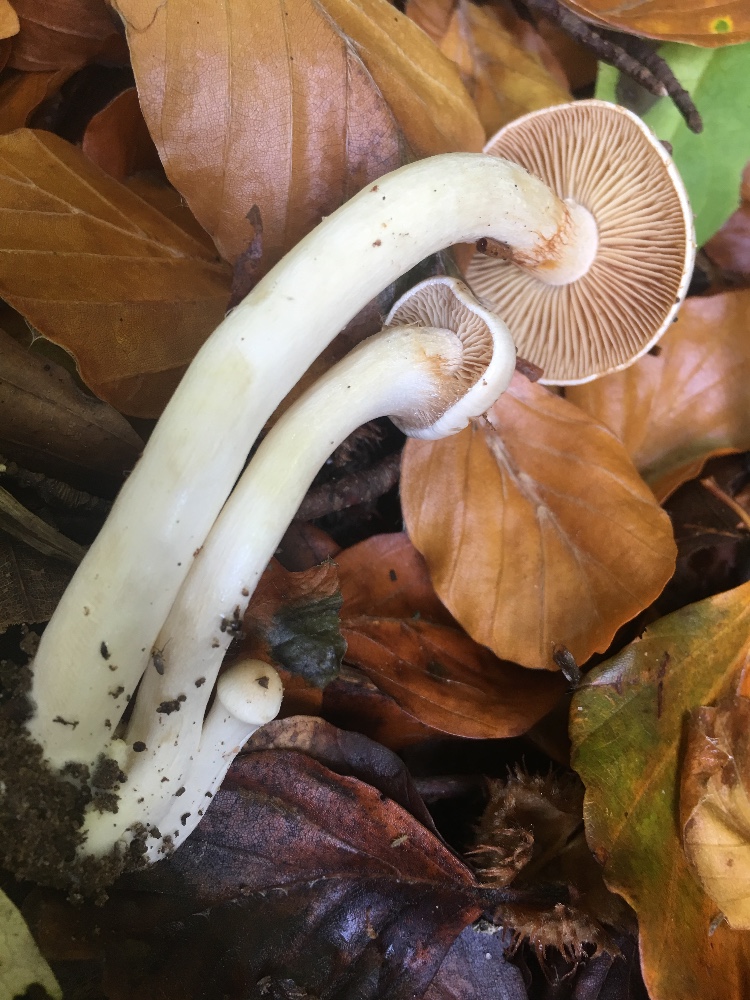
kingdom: Fungi
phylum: Basidiomycota
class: Agaricomycetes
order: Agaricales
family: Cortinariaceae
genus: Thaxterogaster
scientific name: Thaxterogaster barbatus
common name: elfenbens-slørhat
